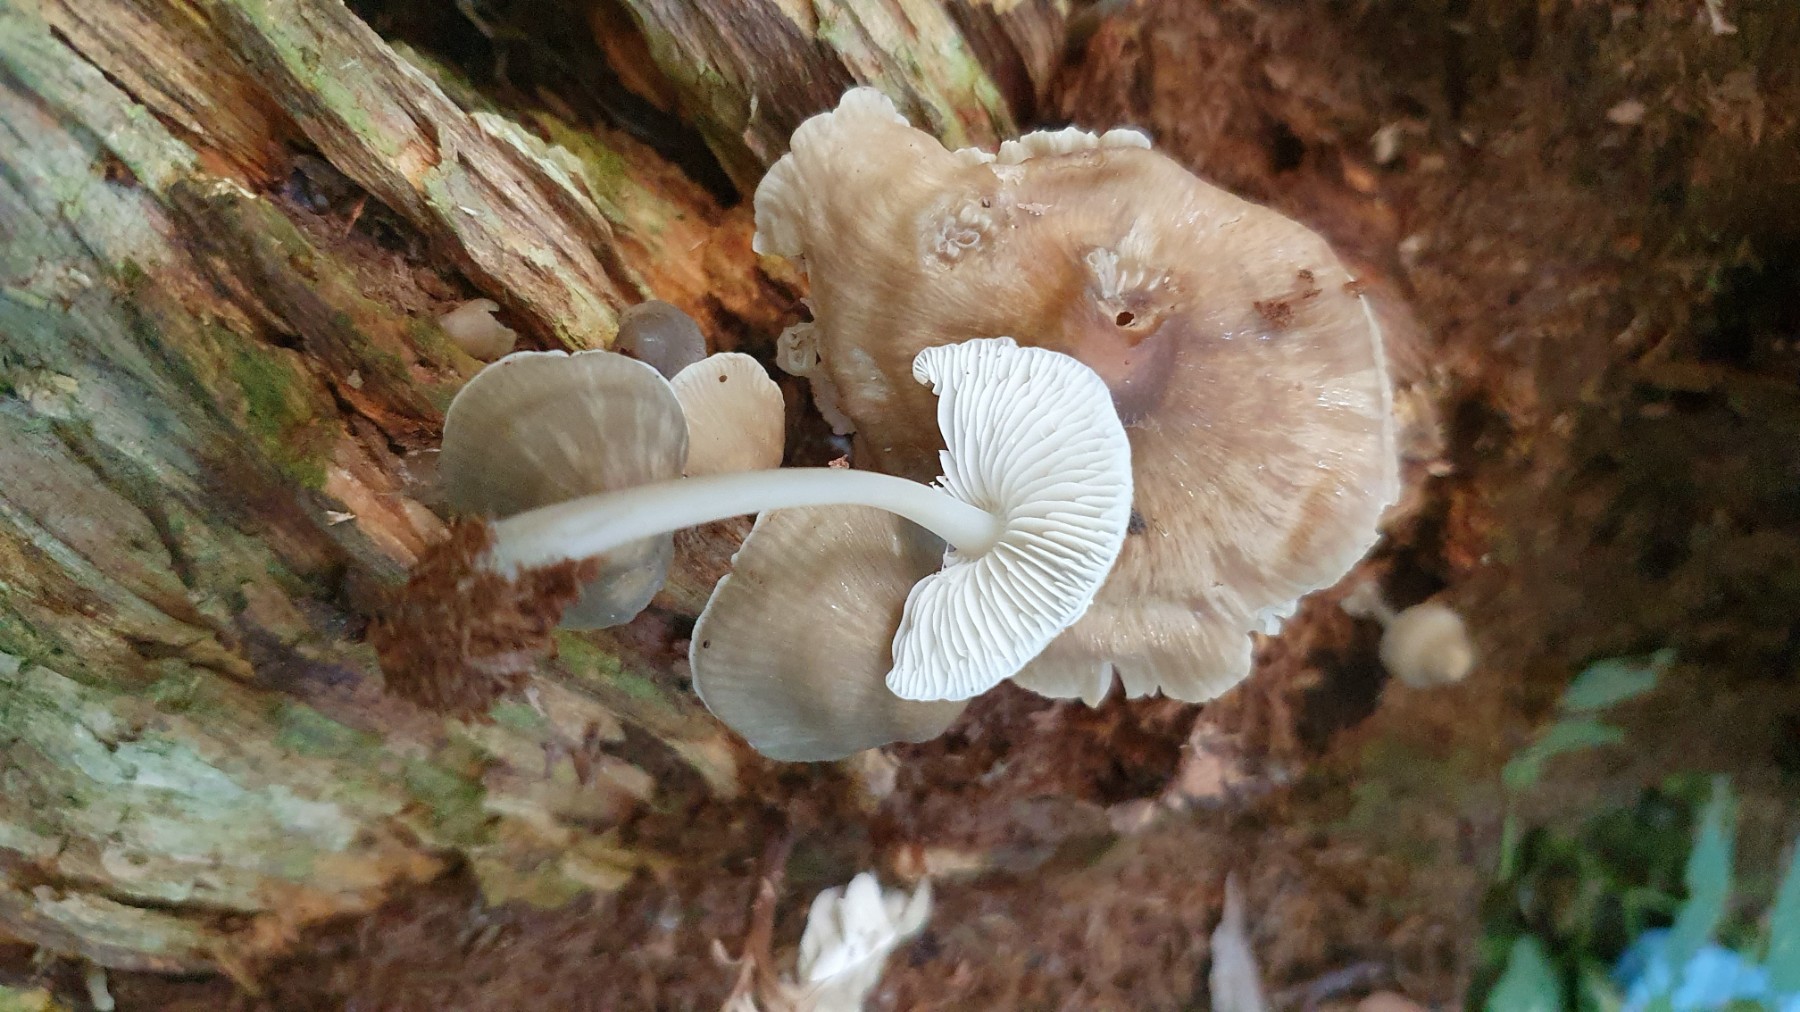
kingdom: Fungi
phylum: Basidiomycota
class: Agaricomycetes
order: Agaricales
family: Mycenaceae
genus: Mycena
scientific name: Mycena galericulata
